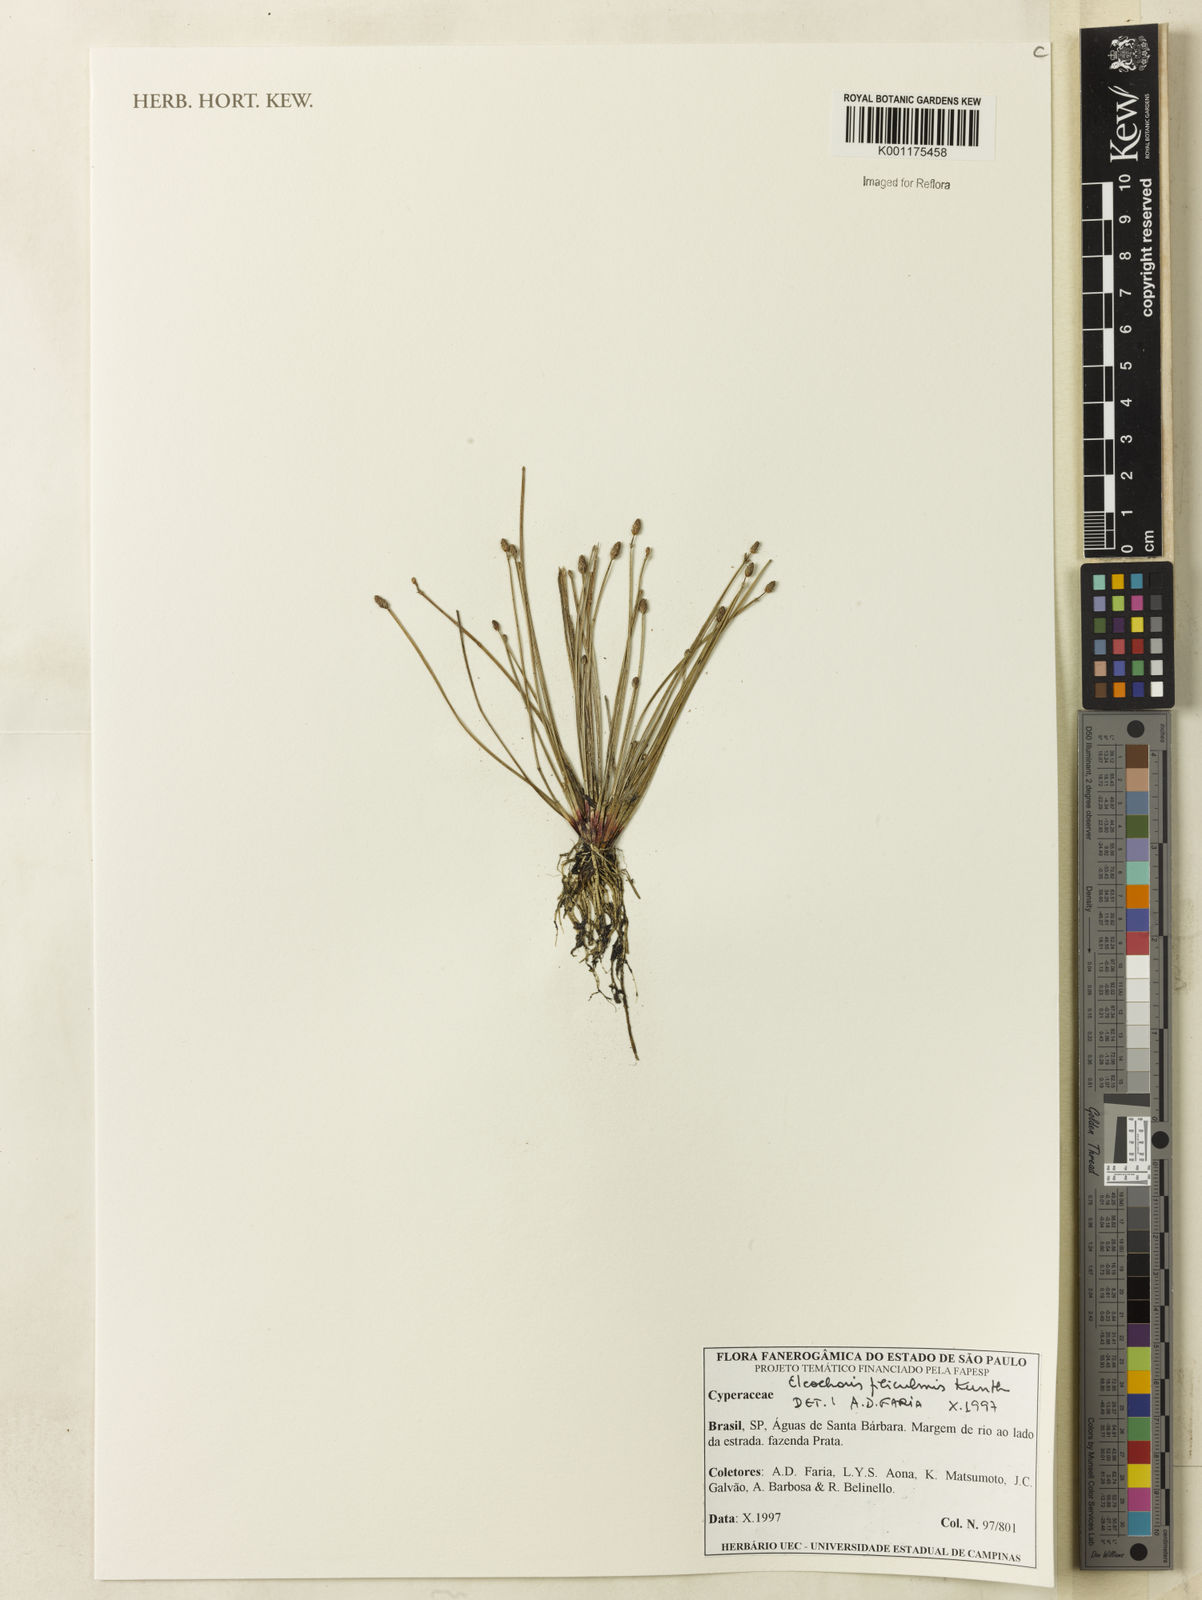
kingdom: Plantae
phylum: Tracheophyta
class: Liliopsida
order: Poales
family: Cyperaceae
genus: Eleocharis
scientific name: Eleocharis filiculmis
